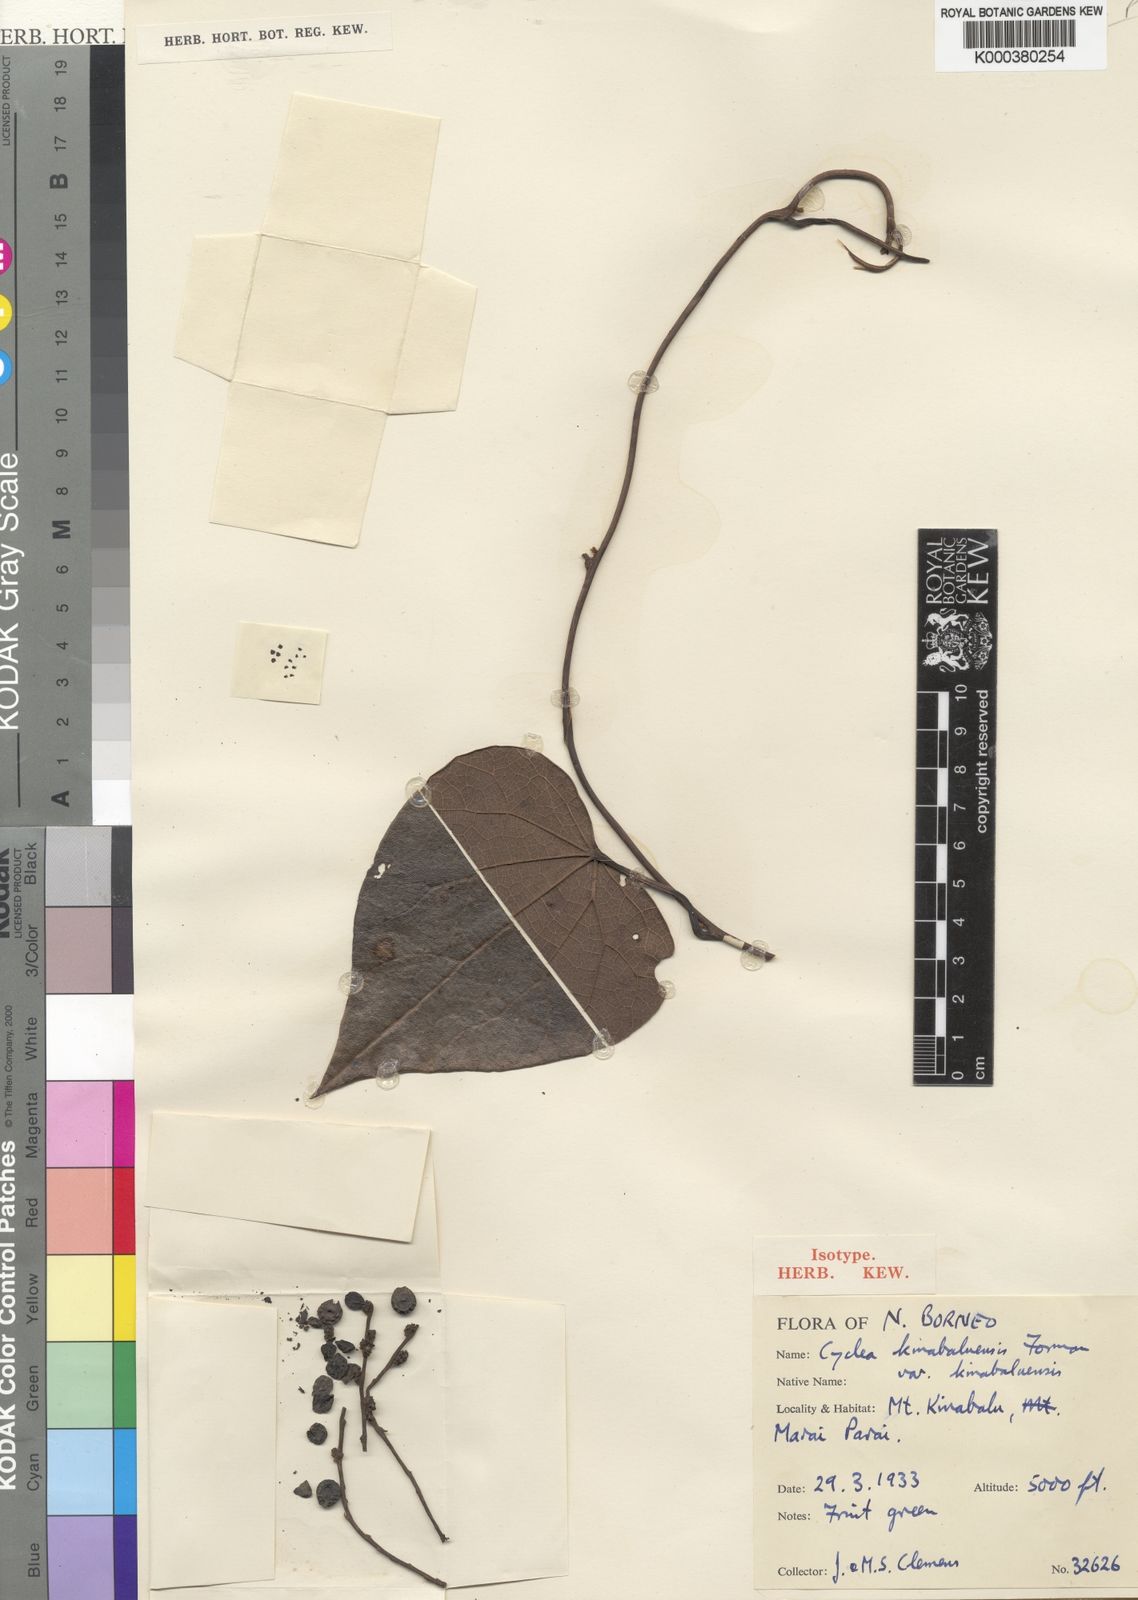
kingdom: Plantae
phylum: Tracheophyta
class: Magnoliopsida
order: Ranunculales
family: Menispermaceae
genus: Cyclea
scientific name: Cyclea kinabaluensis
